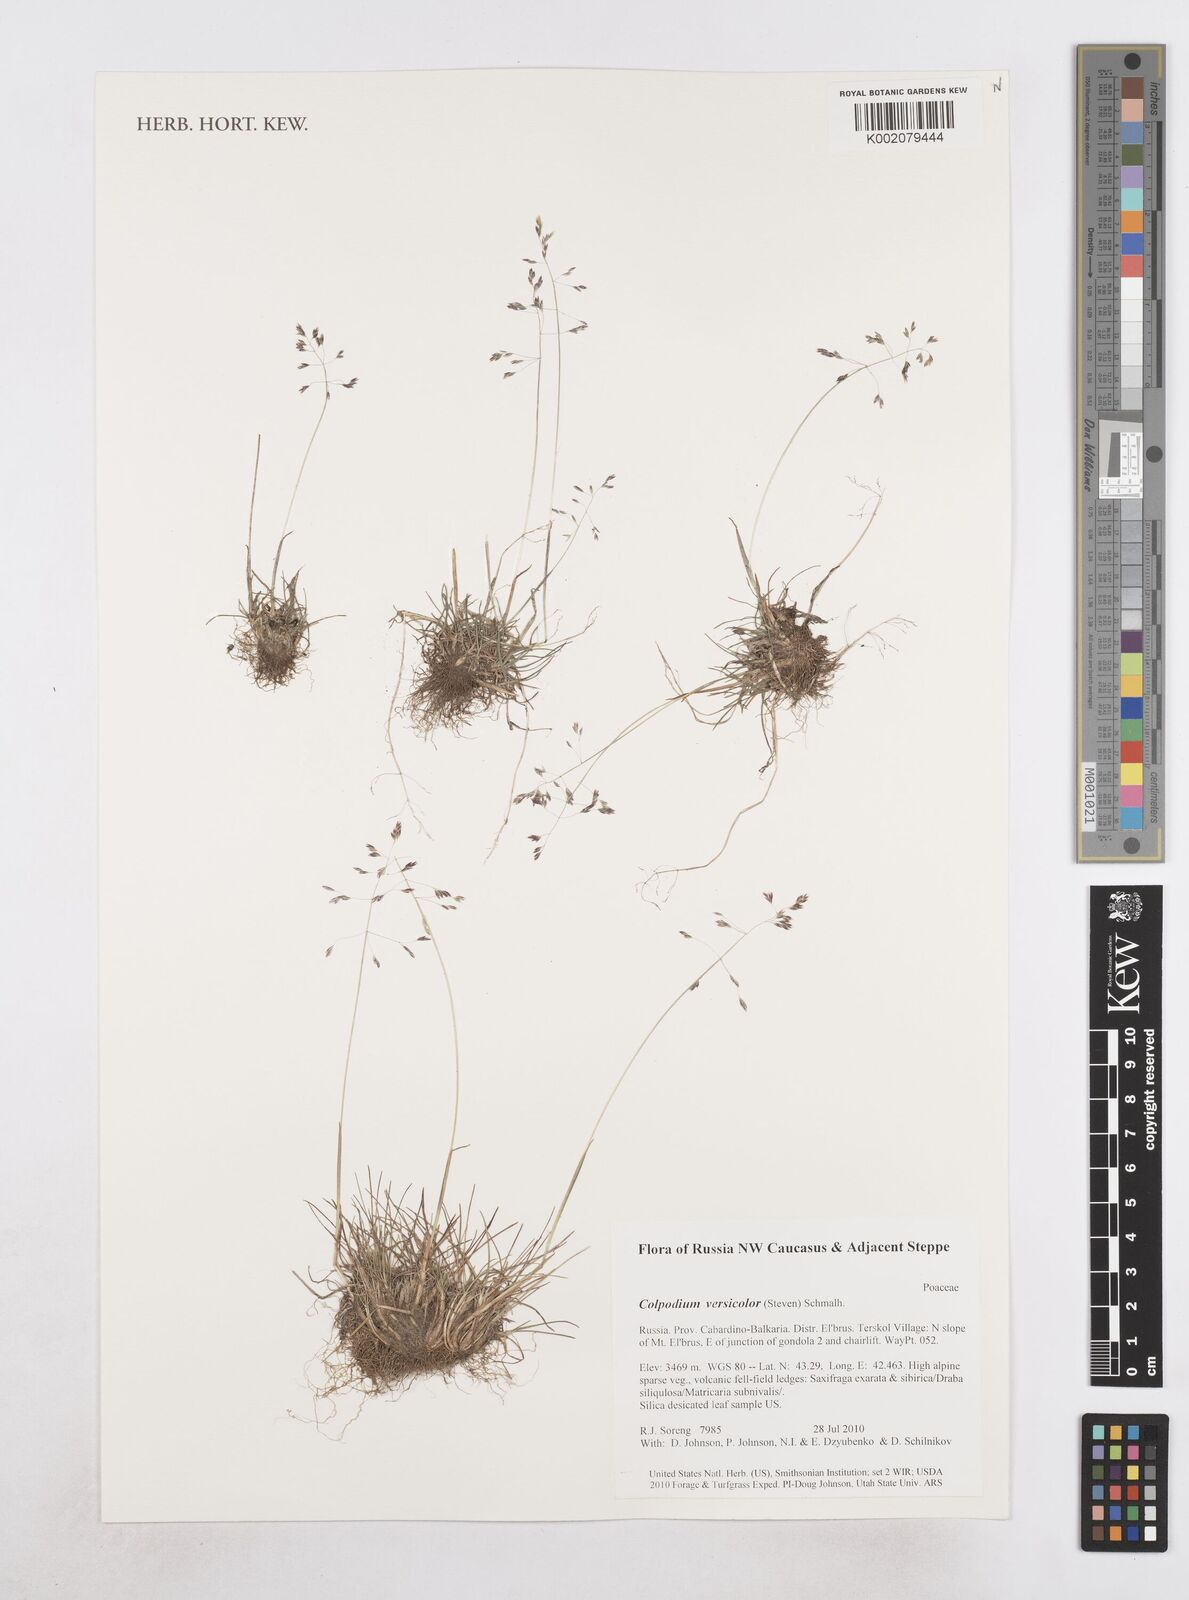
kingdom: Plantae
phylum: Tracheophyta
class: Liliopsida
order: Poales
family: Poaceae
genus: Colpodium
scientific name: Colpodium versicolor
